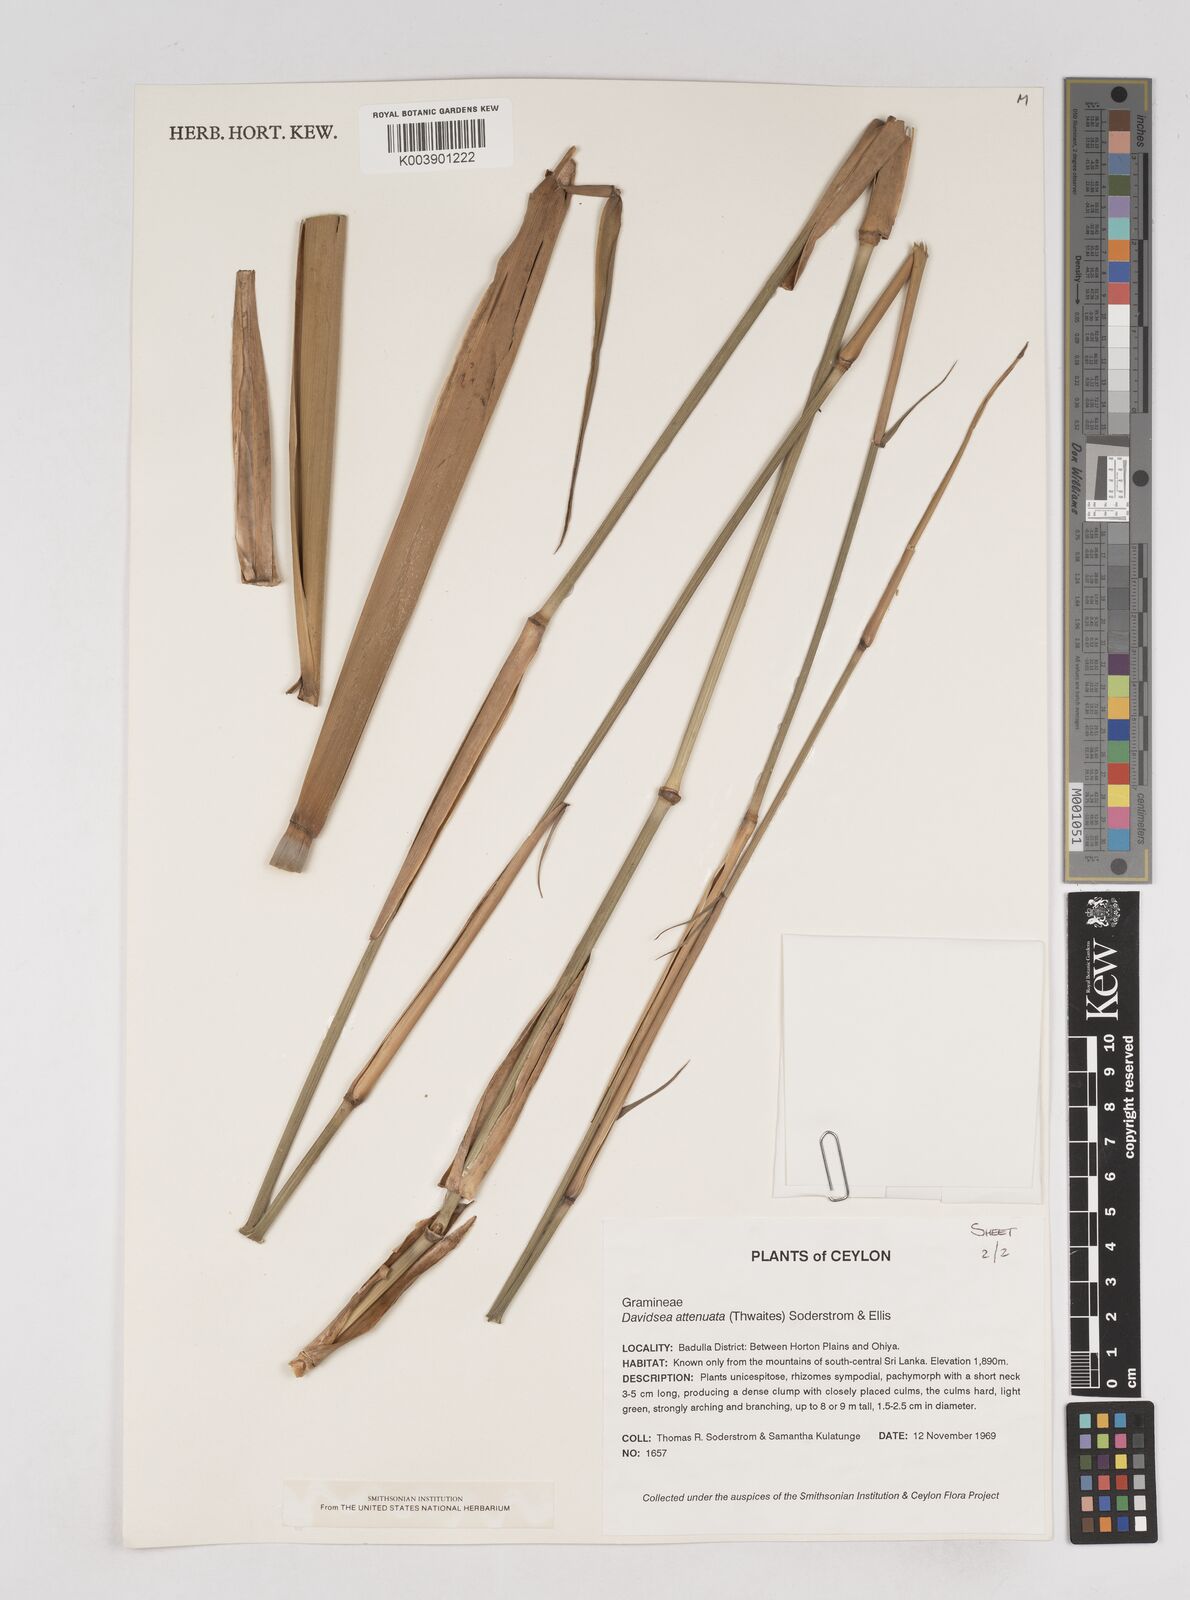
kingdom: Plantae
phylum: Tracheophyta
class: Liliopsida
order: Poales
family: Poaceae
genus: Davidsea
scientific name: Davidsea
